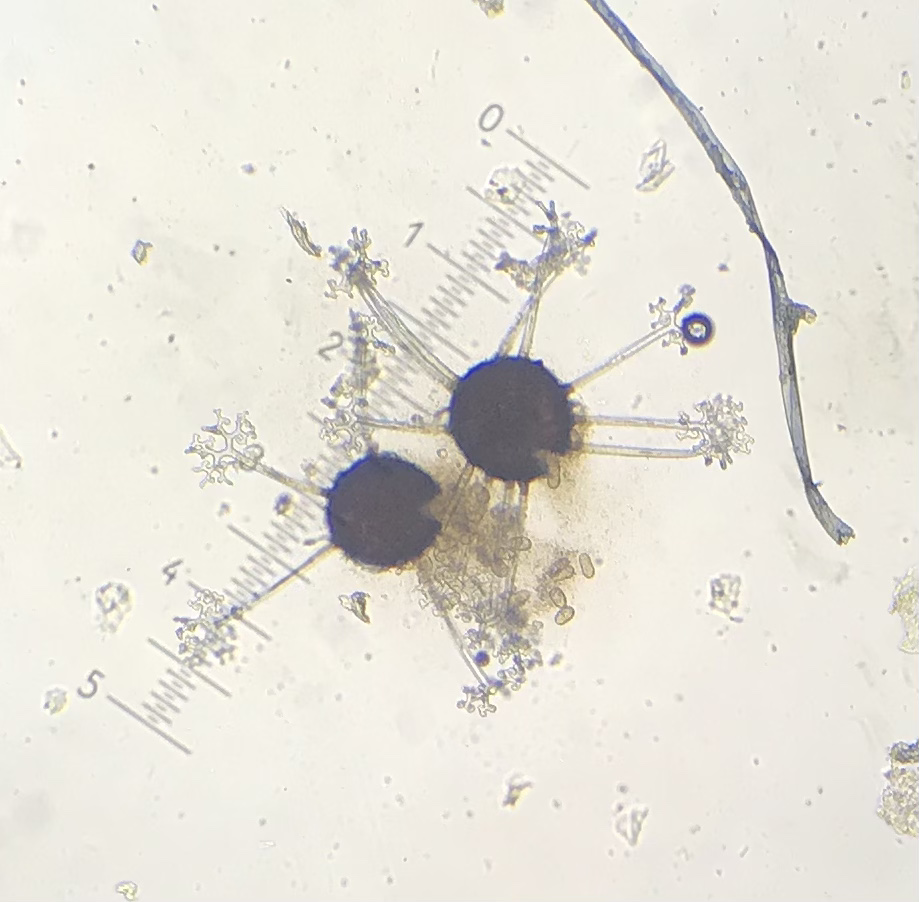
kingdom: Fungi
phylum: Ascomycota
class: Leotiomycetes
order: Helotiales
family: Erysiphaceae
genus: Erysiphe
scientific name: Erysiphe syringae-japonicae
